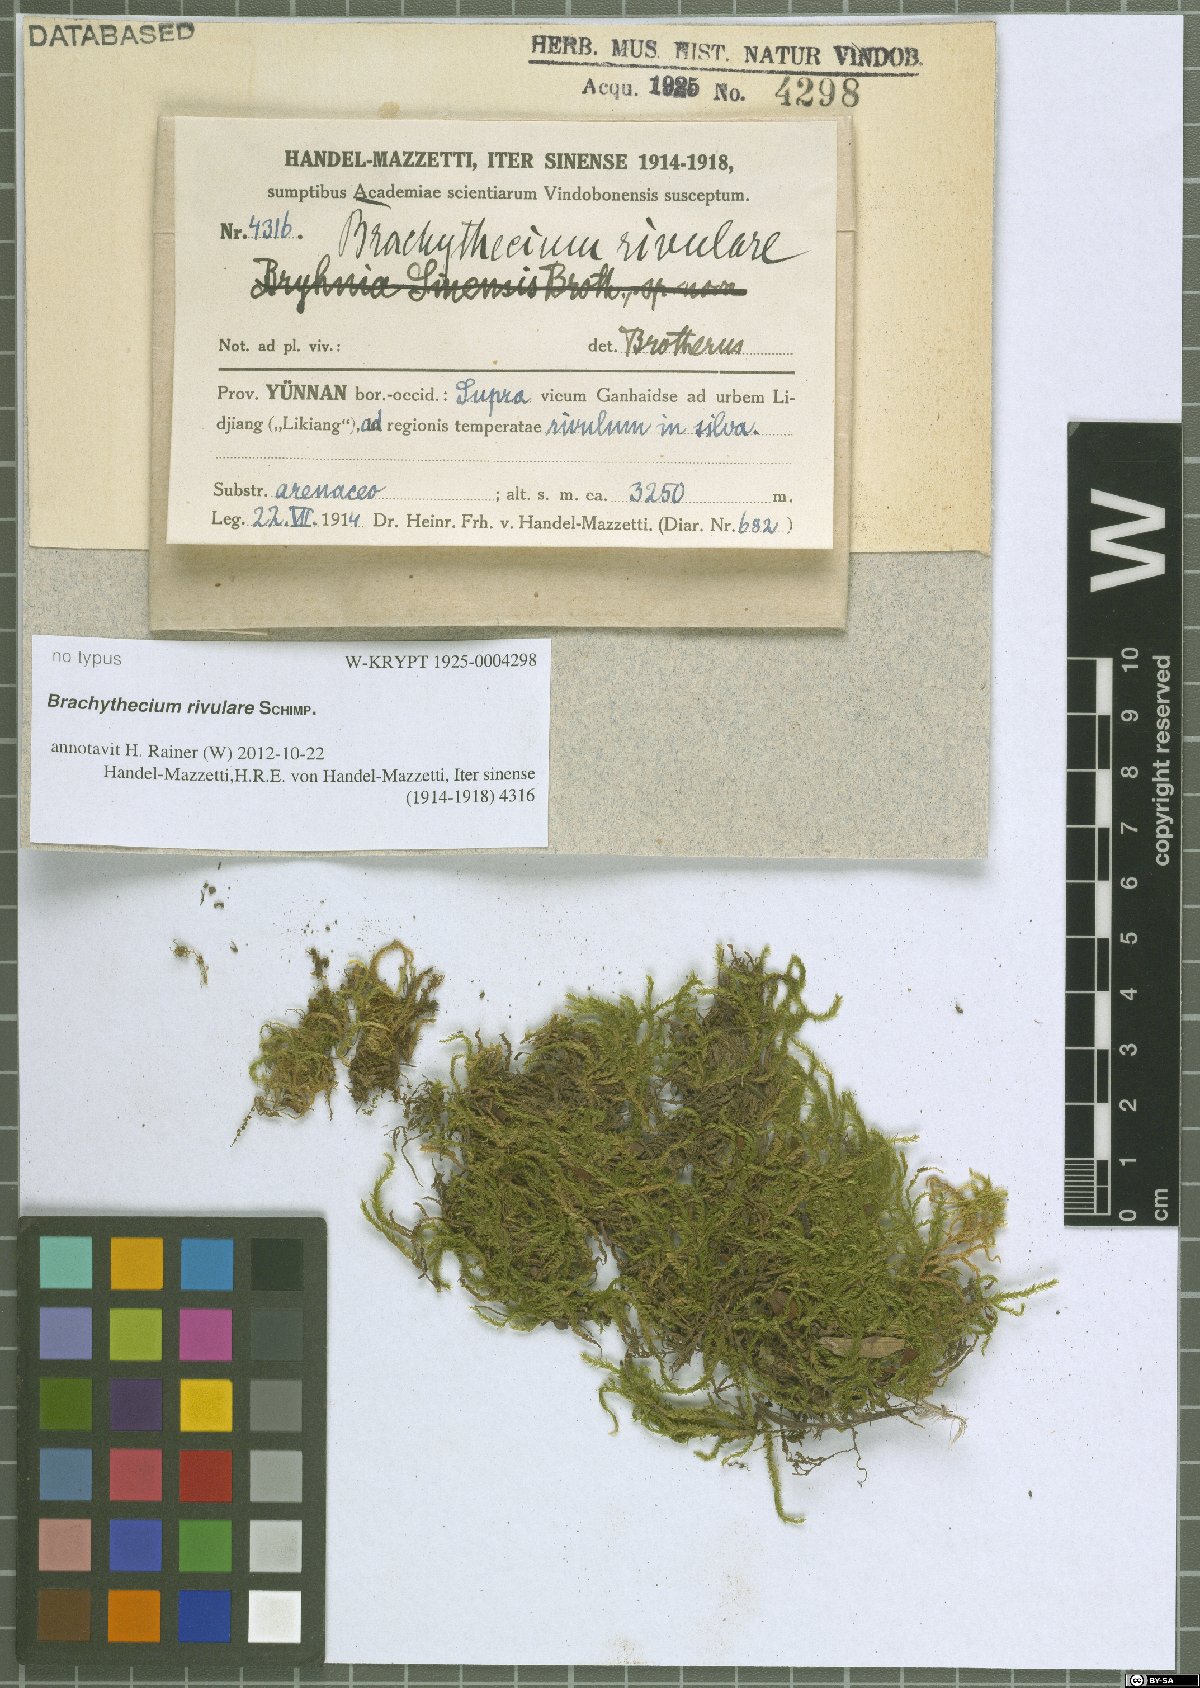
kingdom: Plantae
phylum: Bryophyta
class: Bryopsida
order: Hypnales
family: Brachytheciaceae
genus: Brachythecium
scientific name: Brachythecium rivulare
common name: River ragged moss
